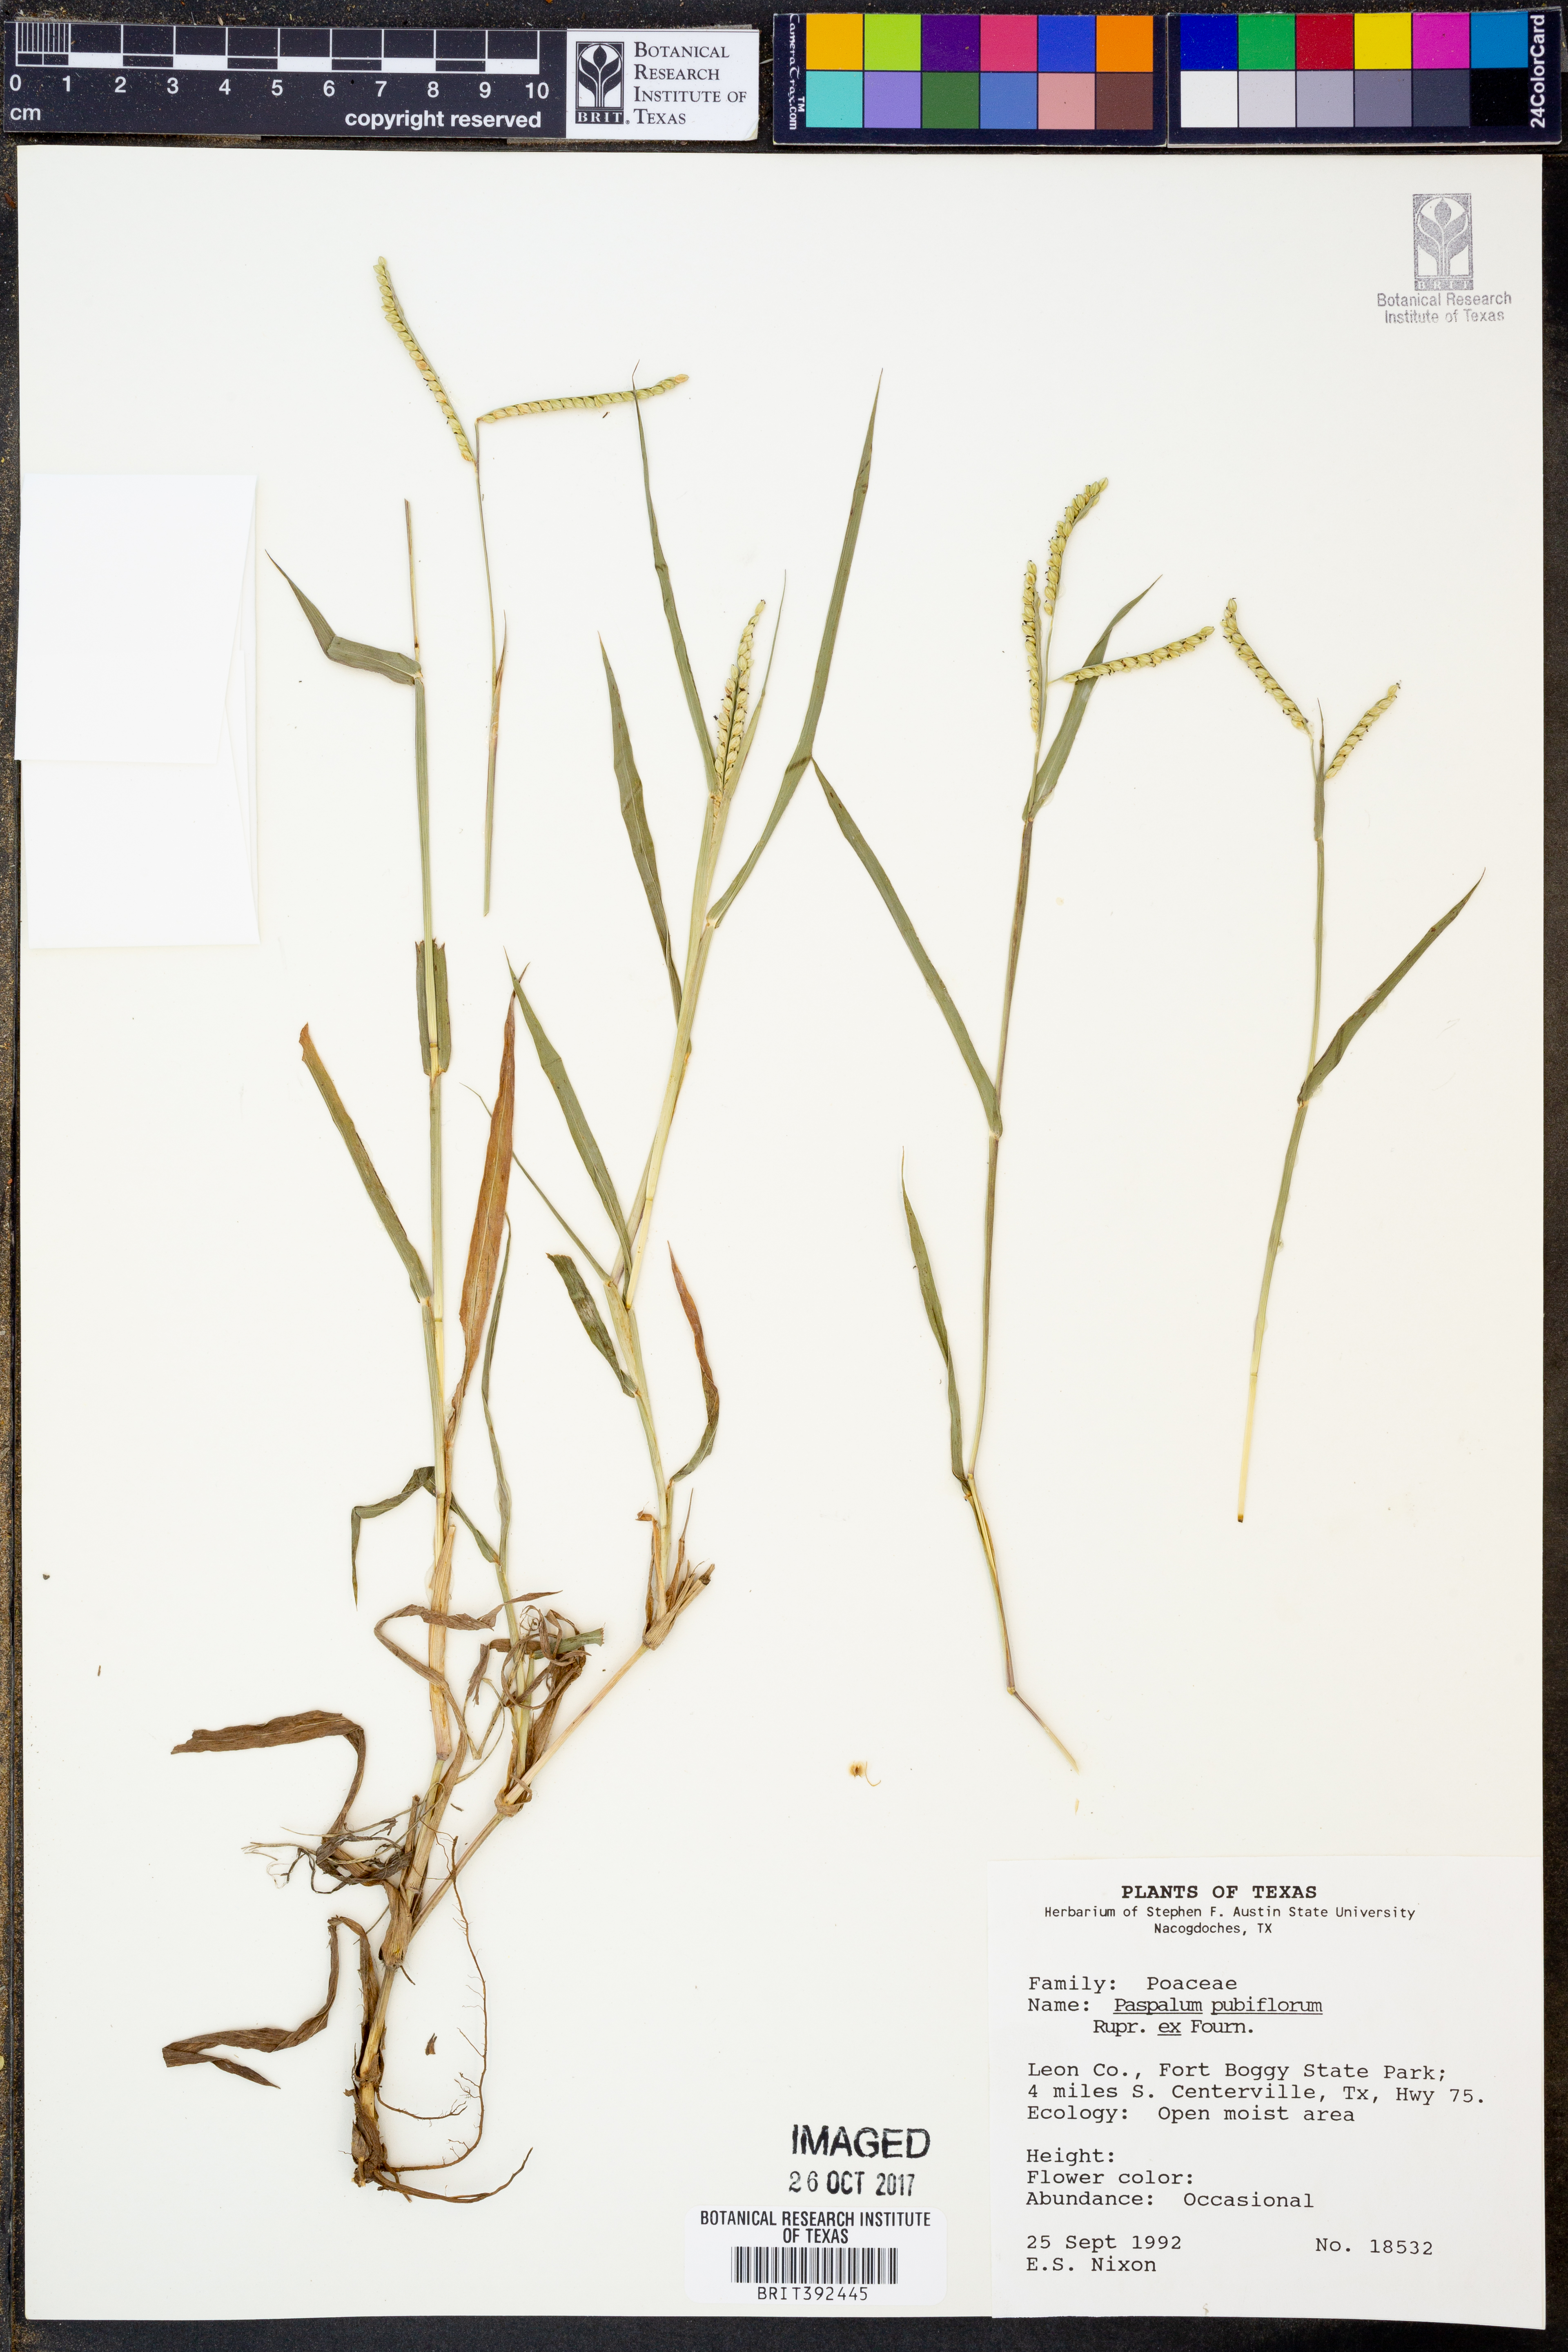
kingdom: Plantae
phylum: Tracheophyta
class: Liliopsida
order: Poales
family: Poaceae
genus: Paspalum
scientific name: Paspalum pubiflorum
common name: Hairy-seed paspalum
